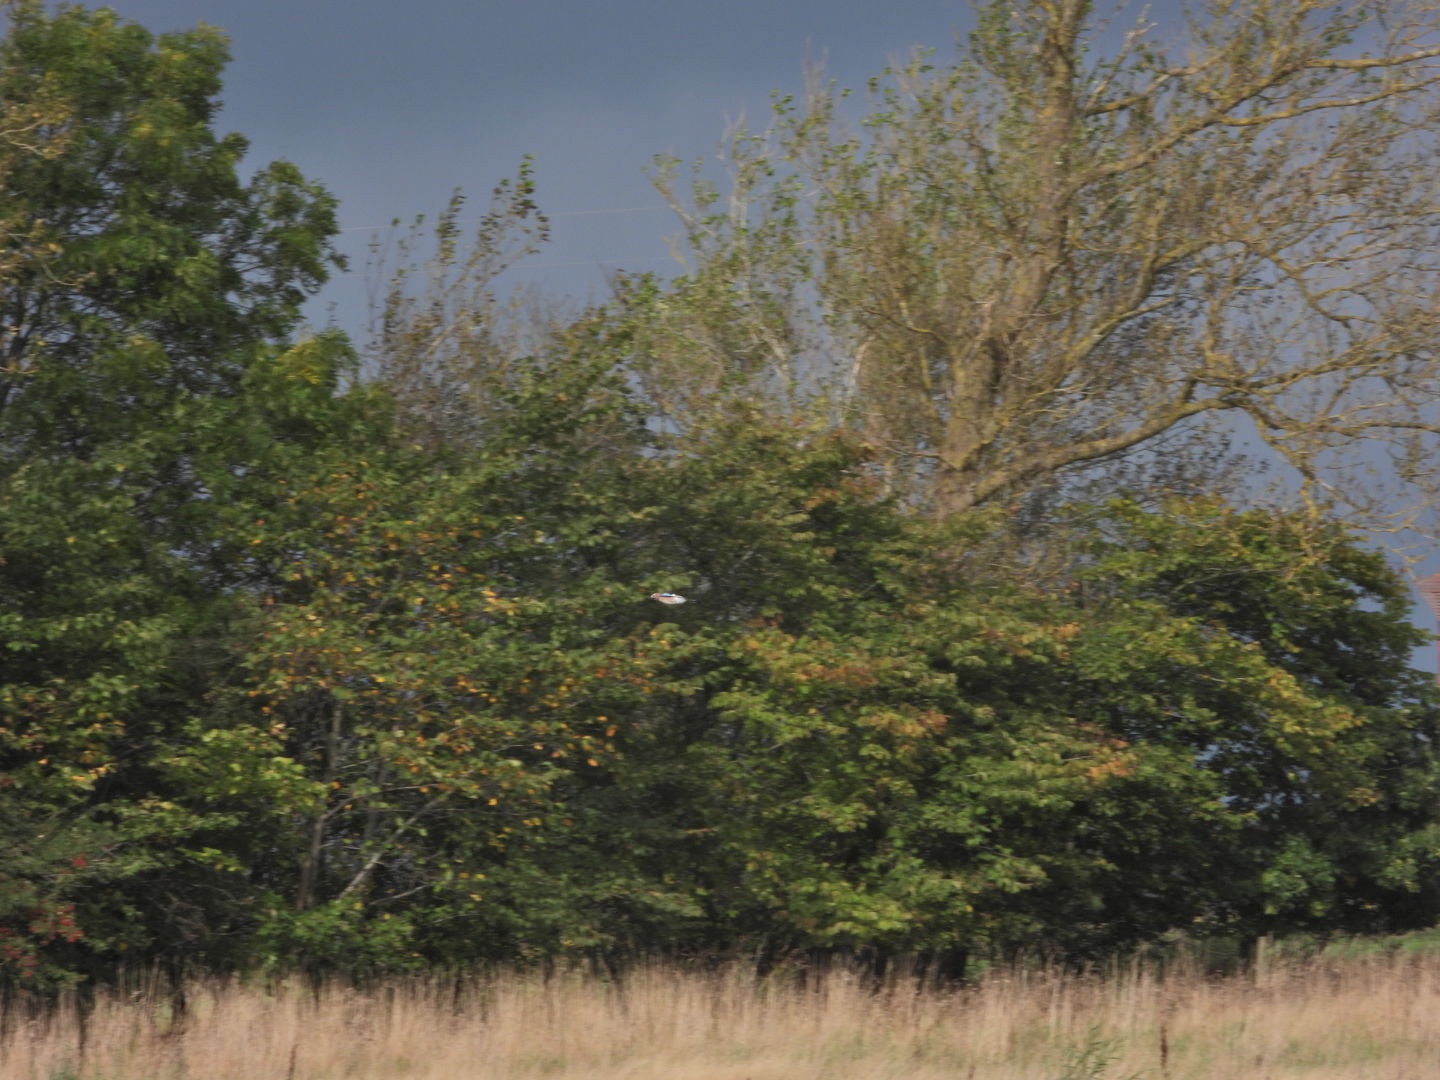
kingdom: Animalia
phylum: Chordata
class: Aves
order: Passeriformes
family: Corvidae
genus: Garrulus
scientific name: Garrulus glandarius
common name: Skovskade
